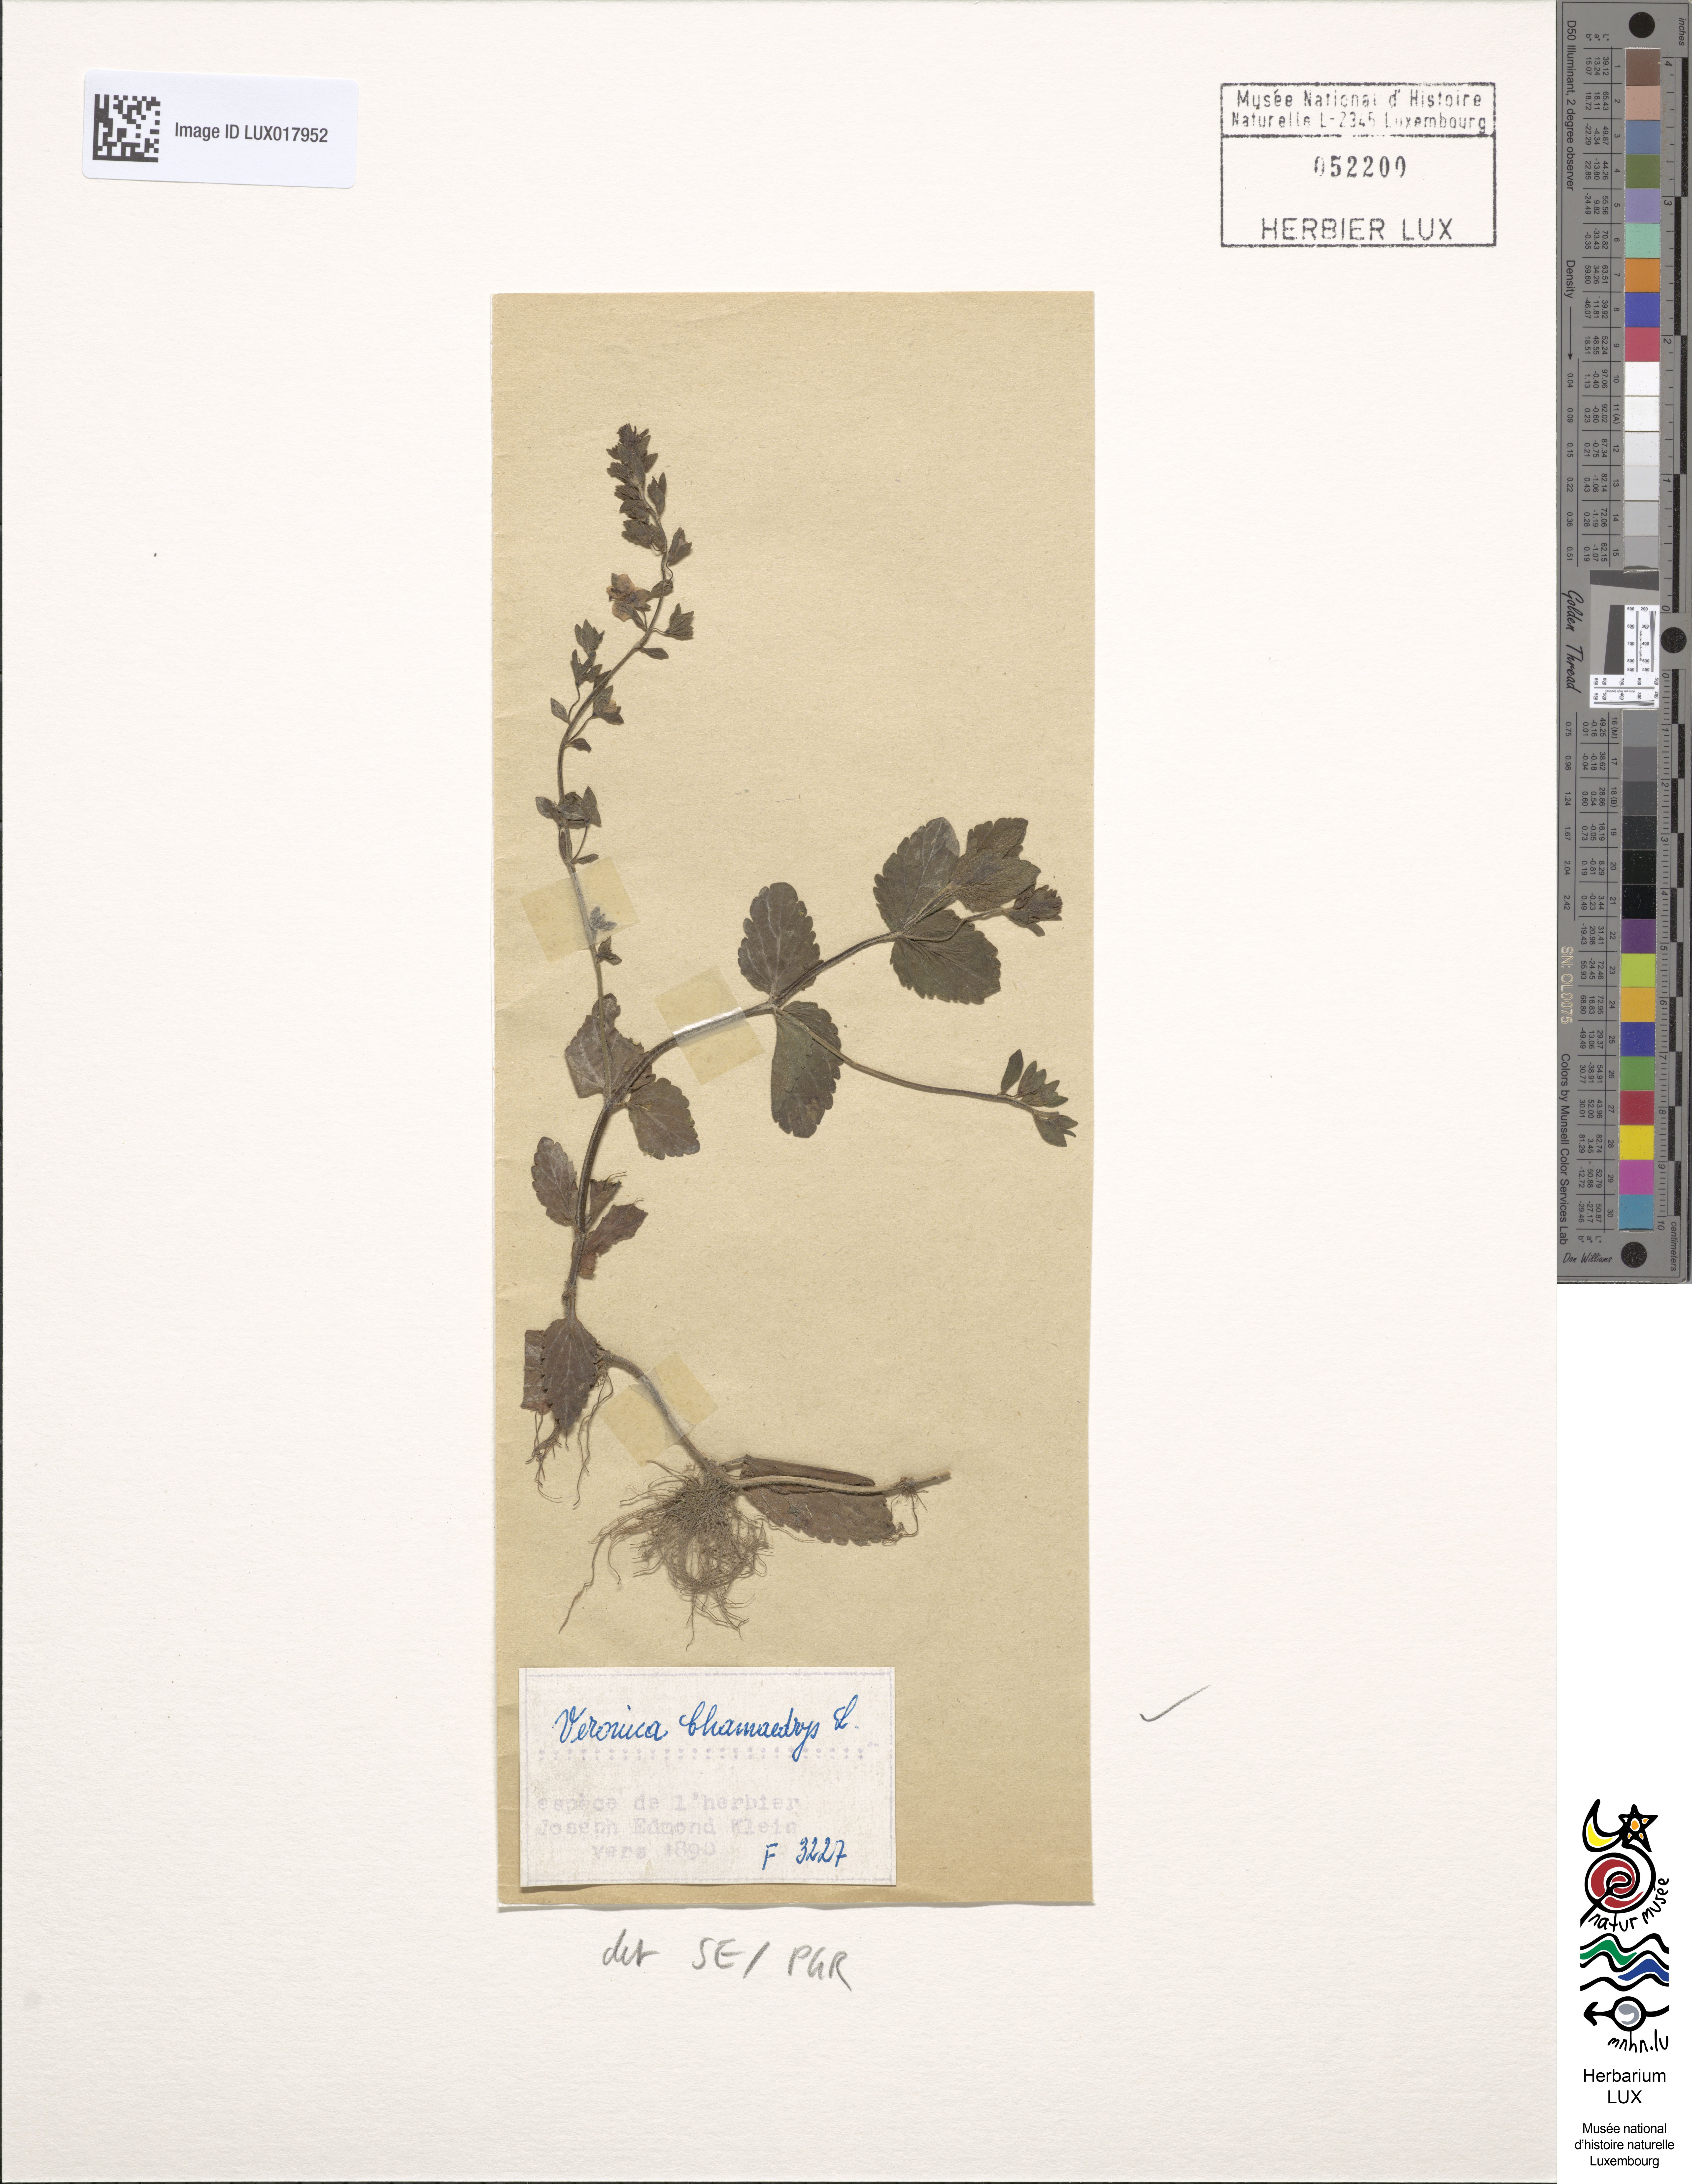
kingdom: Plantae
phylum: Tracheophyta
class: Magnoliopsida
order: Lamiales
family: Plantaginaceae
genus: Veronica
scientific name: Veronica chamaedrys
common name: Germander speedwell
